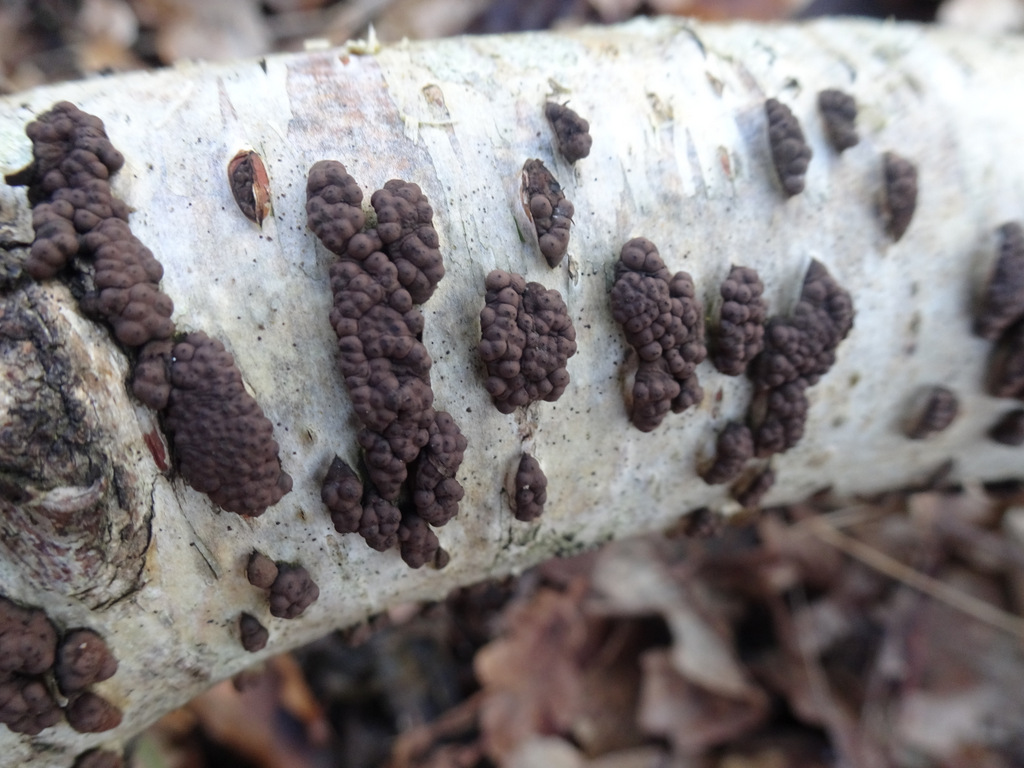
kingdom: Fungi
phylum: Ascomycota
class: Sordariomycetes
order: Xylariales
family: Hypoxylaceae
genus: Jackrogersella
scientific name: Jackrogersella multiformis
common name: foranderlig kulbær
